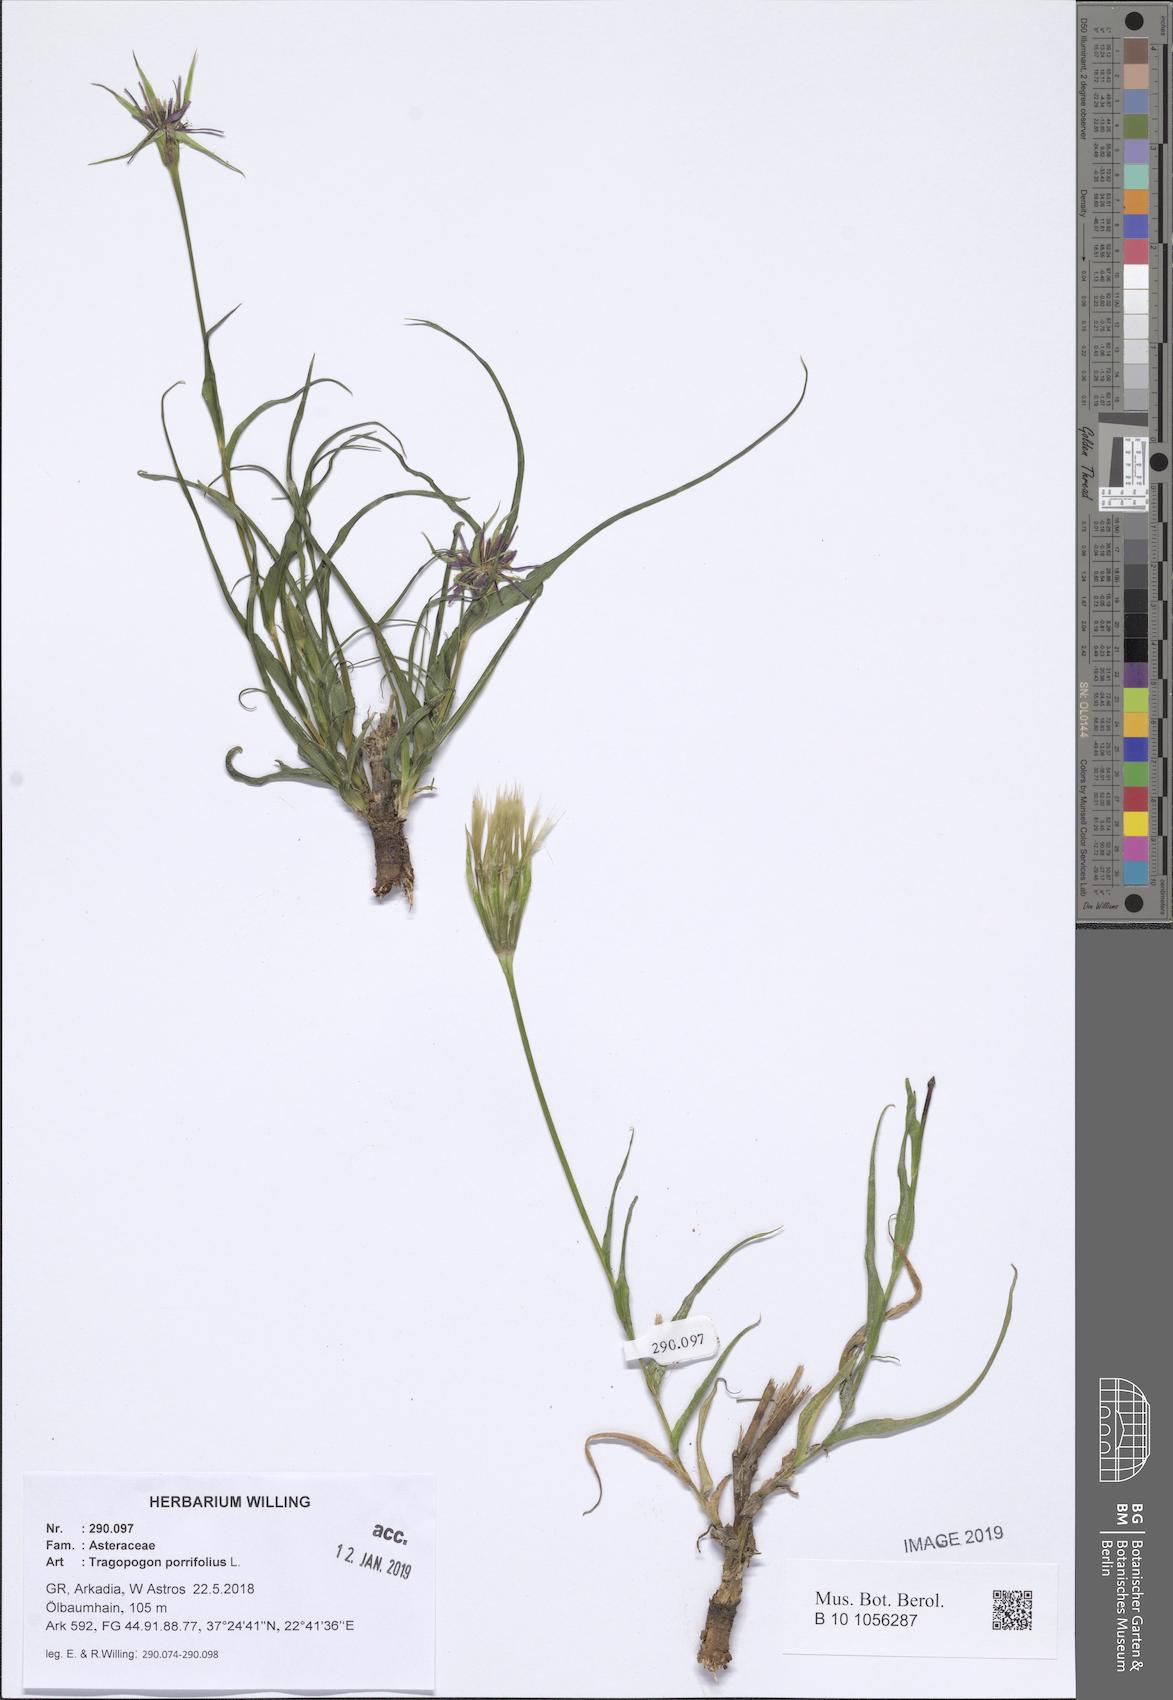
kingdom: Plantae
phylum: Tracheophyta
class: Magnoliopsida
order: Asterales
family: Asteraceae
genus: Tragopogon
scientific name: Tragopogon porrifolius
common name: Salsify
